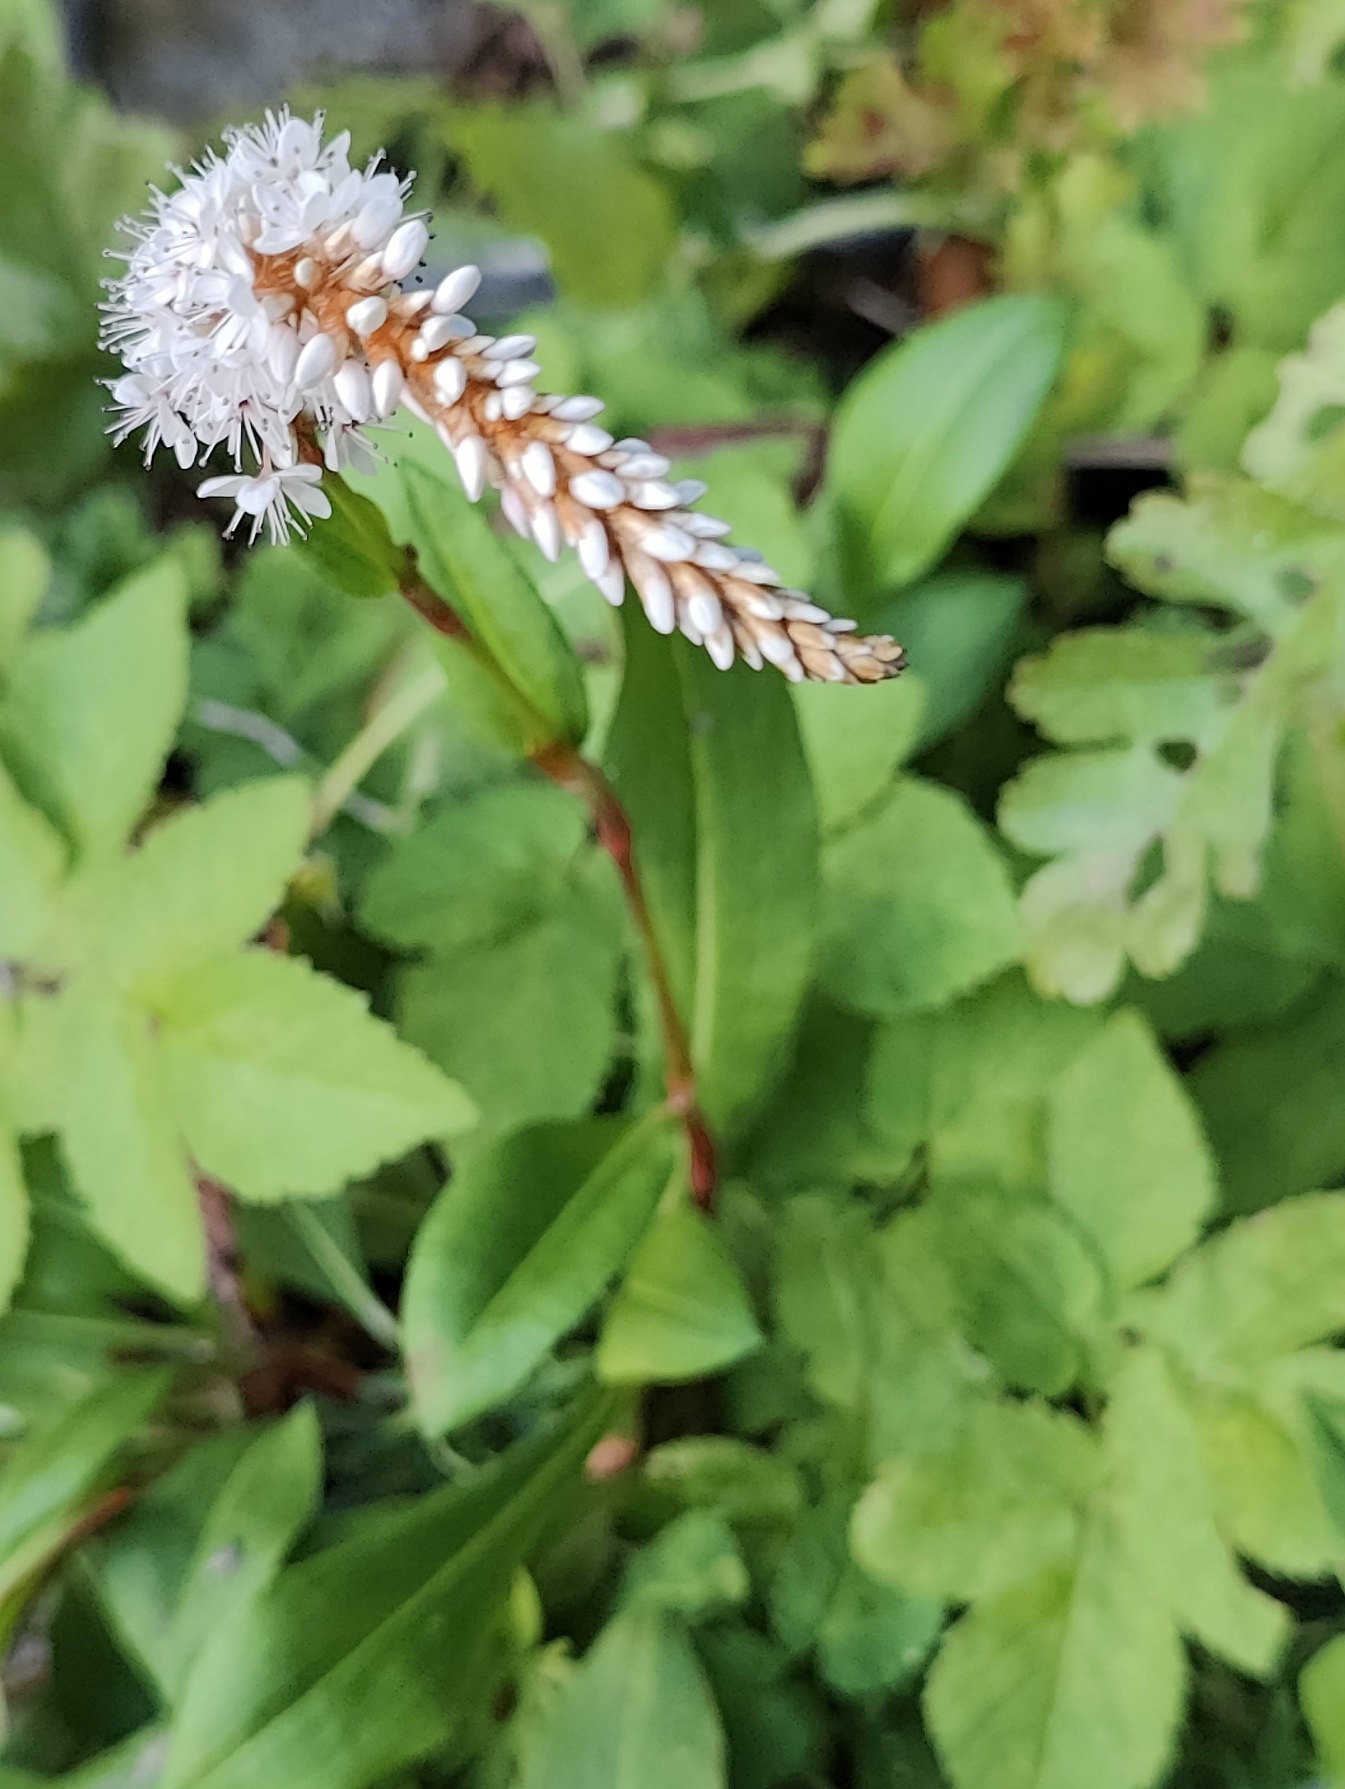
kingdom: Plantae
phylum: Tracheophyta
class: Magnoliopsida
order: Ericales
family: Primulaceae
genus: Lysimachia
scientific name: Lysimachia clethroides
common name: Hvid fredløs
